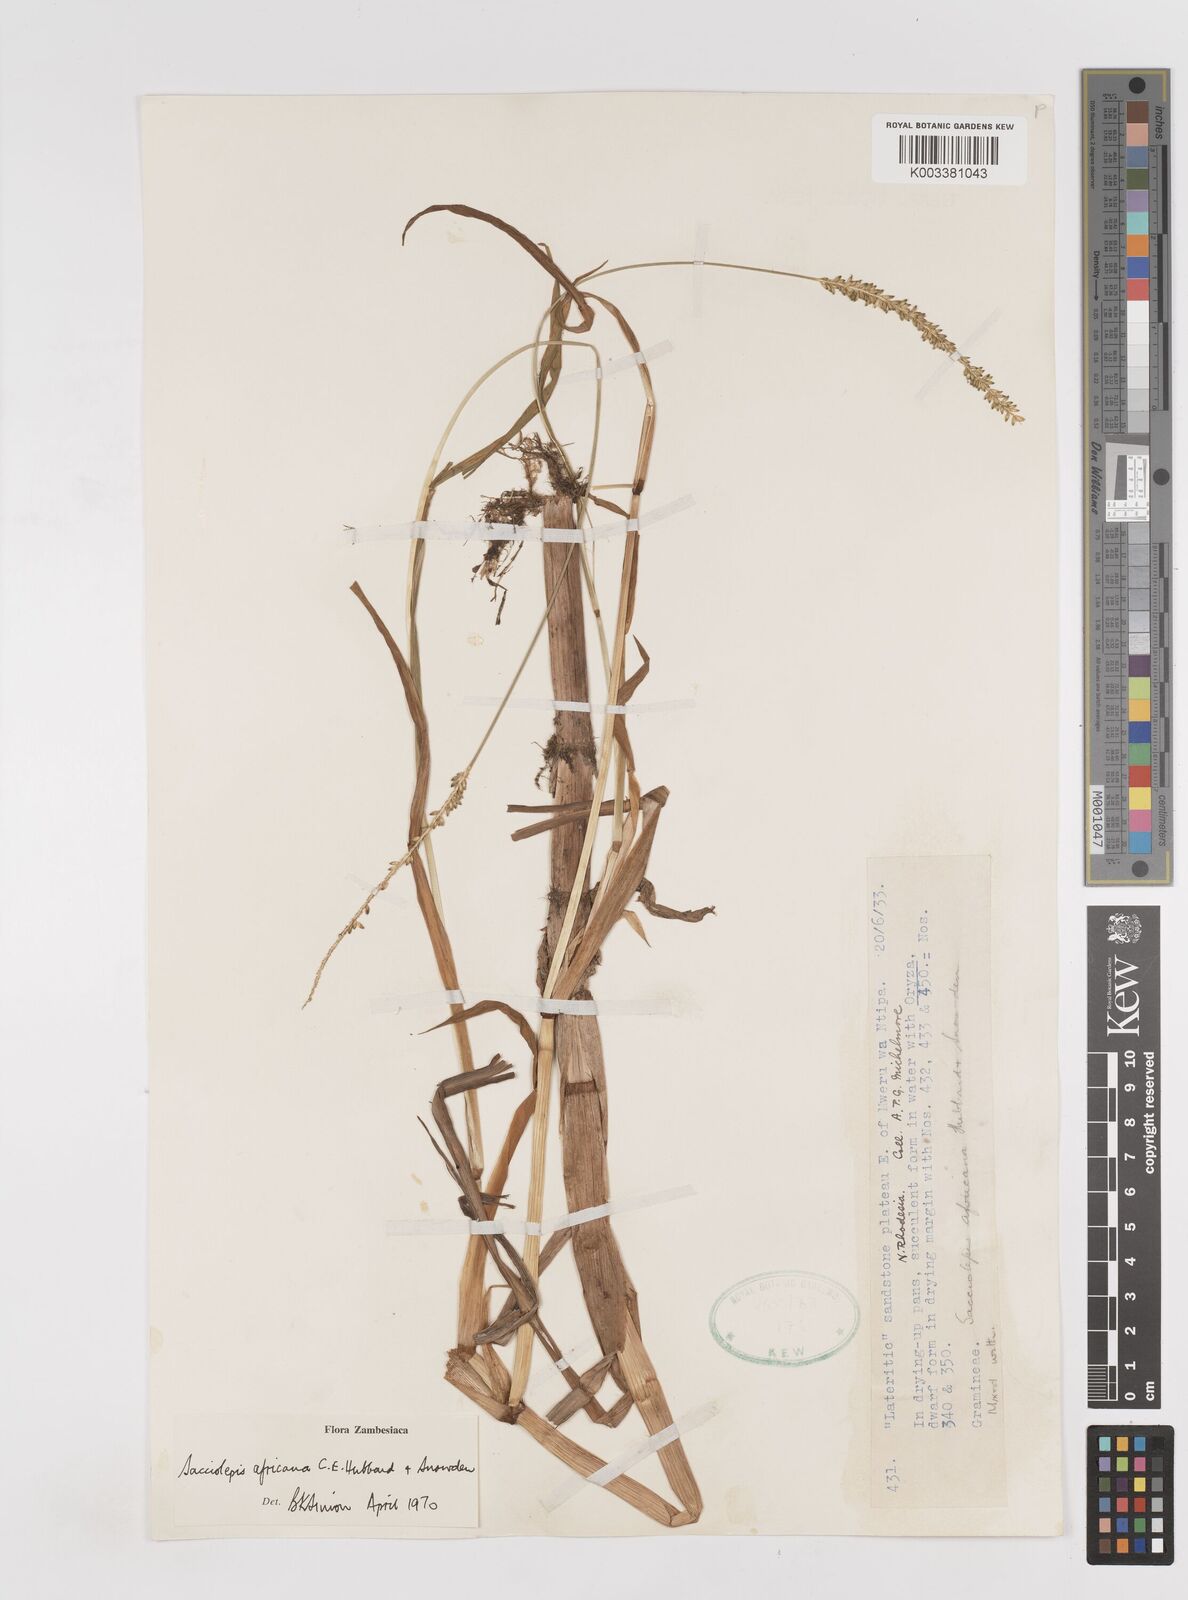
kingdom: Plantae
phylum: Tracheophyta
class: Liliopsida
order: Poales
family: Poaceae
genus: Sacciolepis
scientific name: Sacciolepis africana
